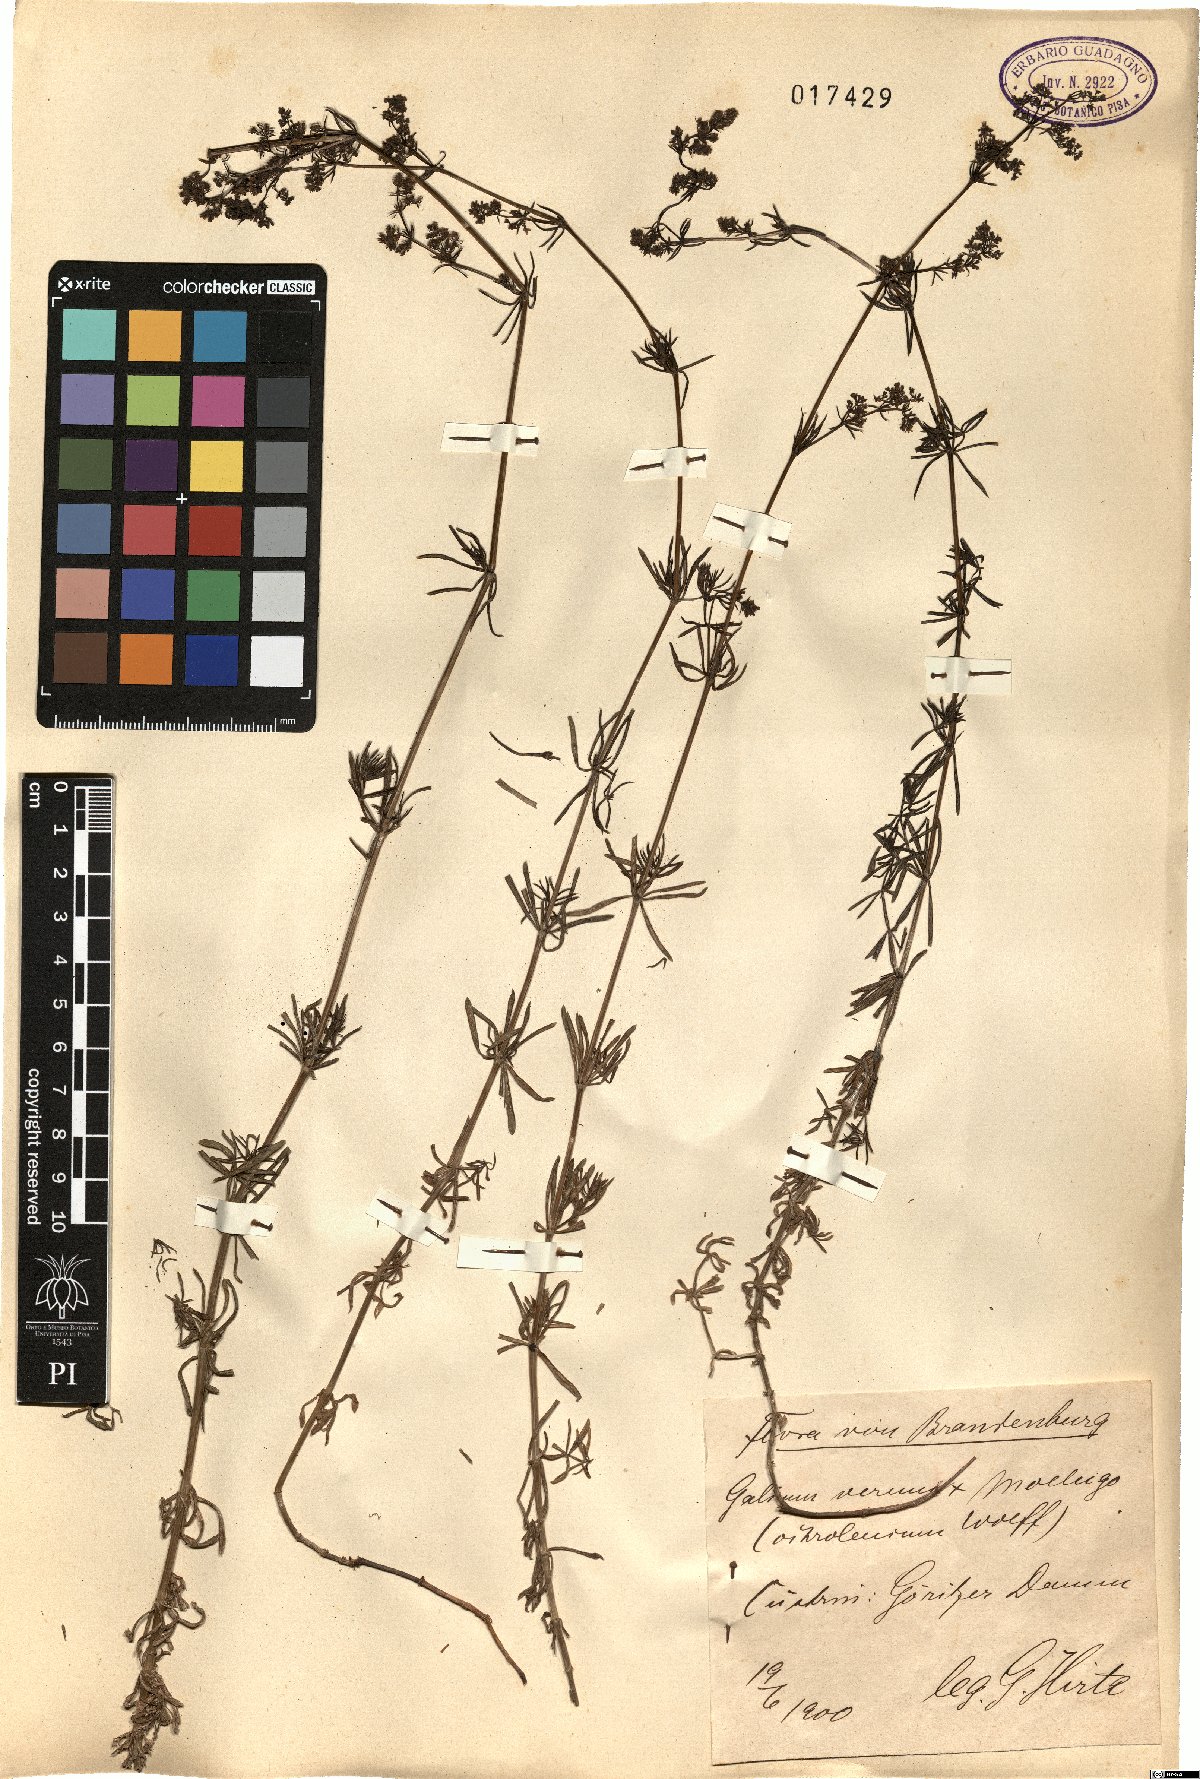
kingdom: Plantae
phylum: Tracheophyta
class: Magnoliopsida
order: Gentianales
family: Rubiaceae
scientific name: Rubiaceae
